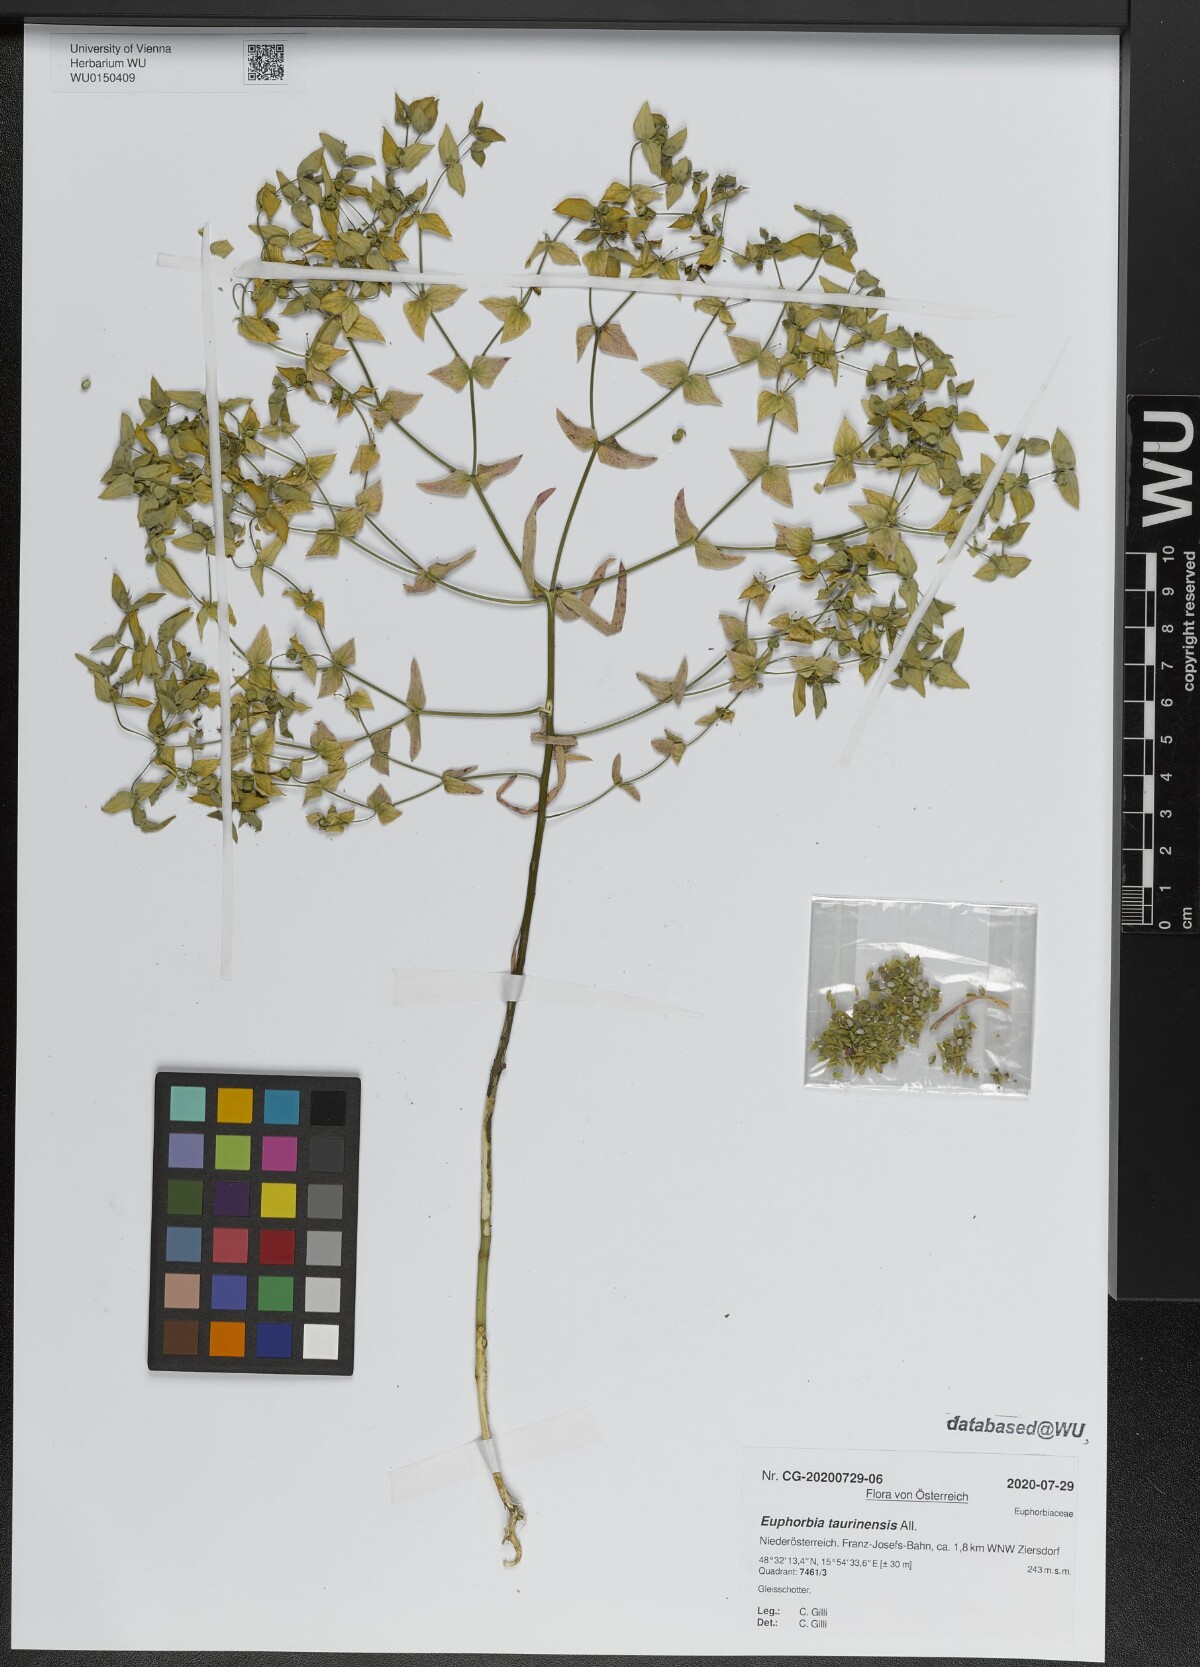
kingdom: Plantae
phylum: Tracheophyta
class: Magnoliopsida
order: Malpighiales
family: Euphorbiaceae
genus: Euphorbia
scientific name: Euphorbia taurinensis
